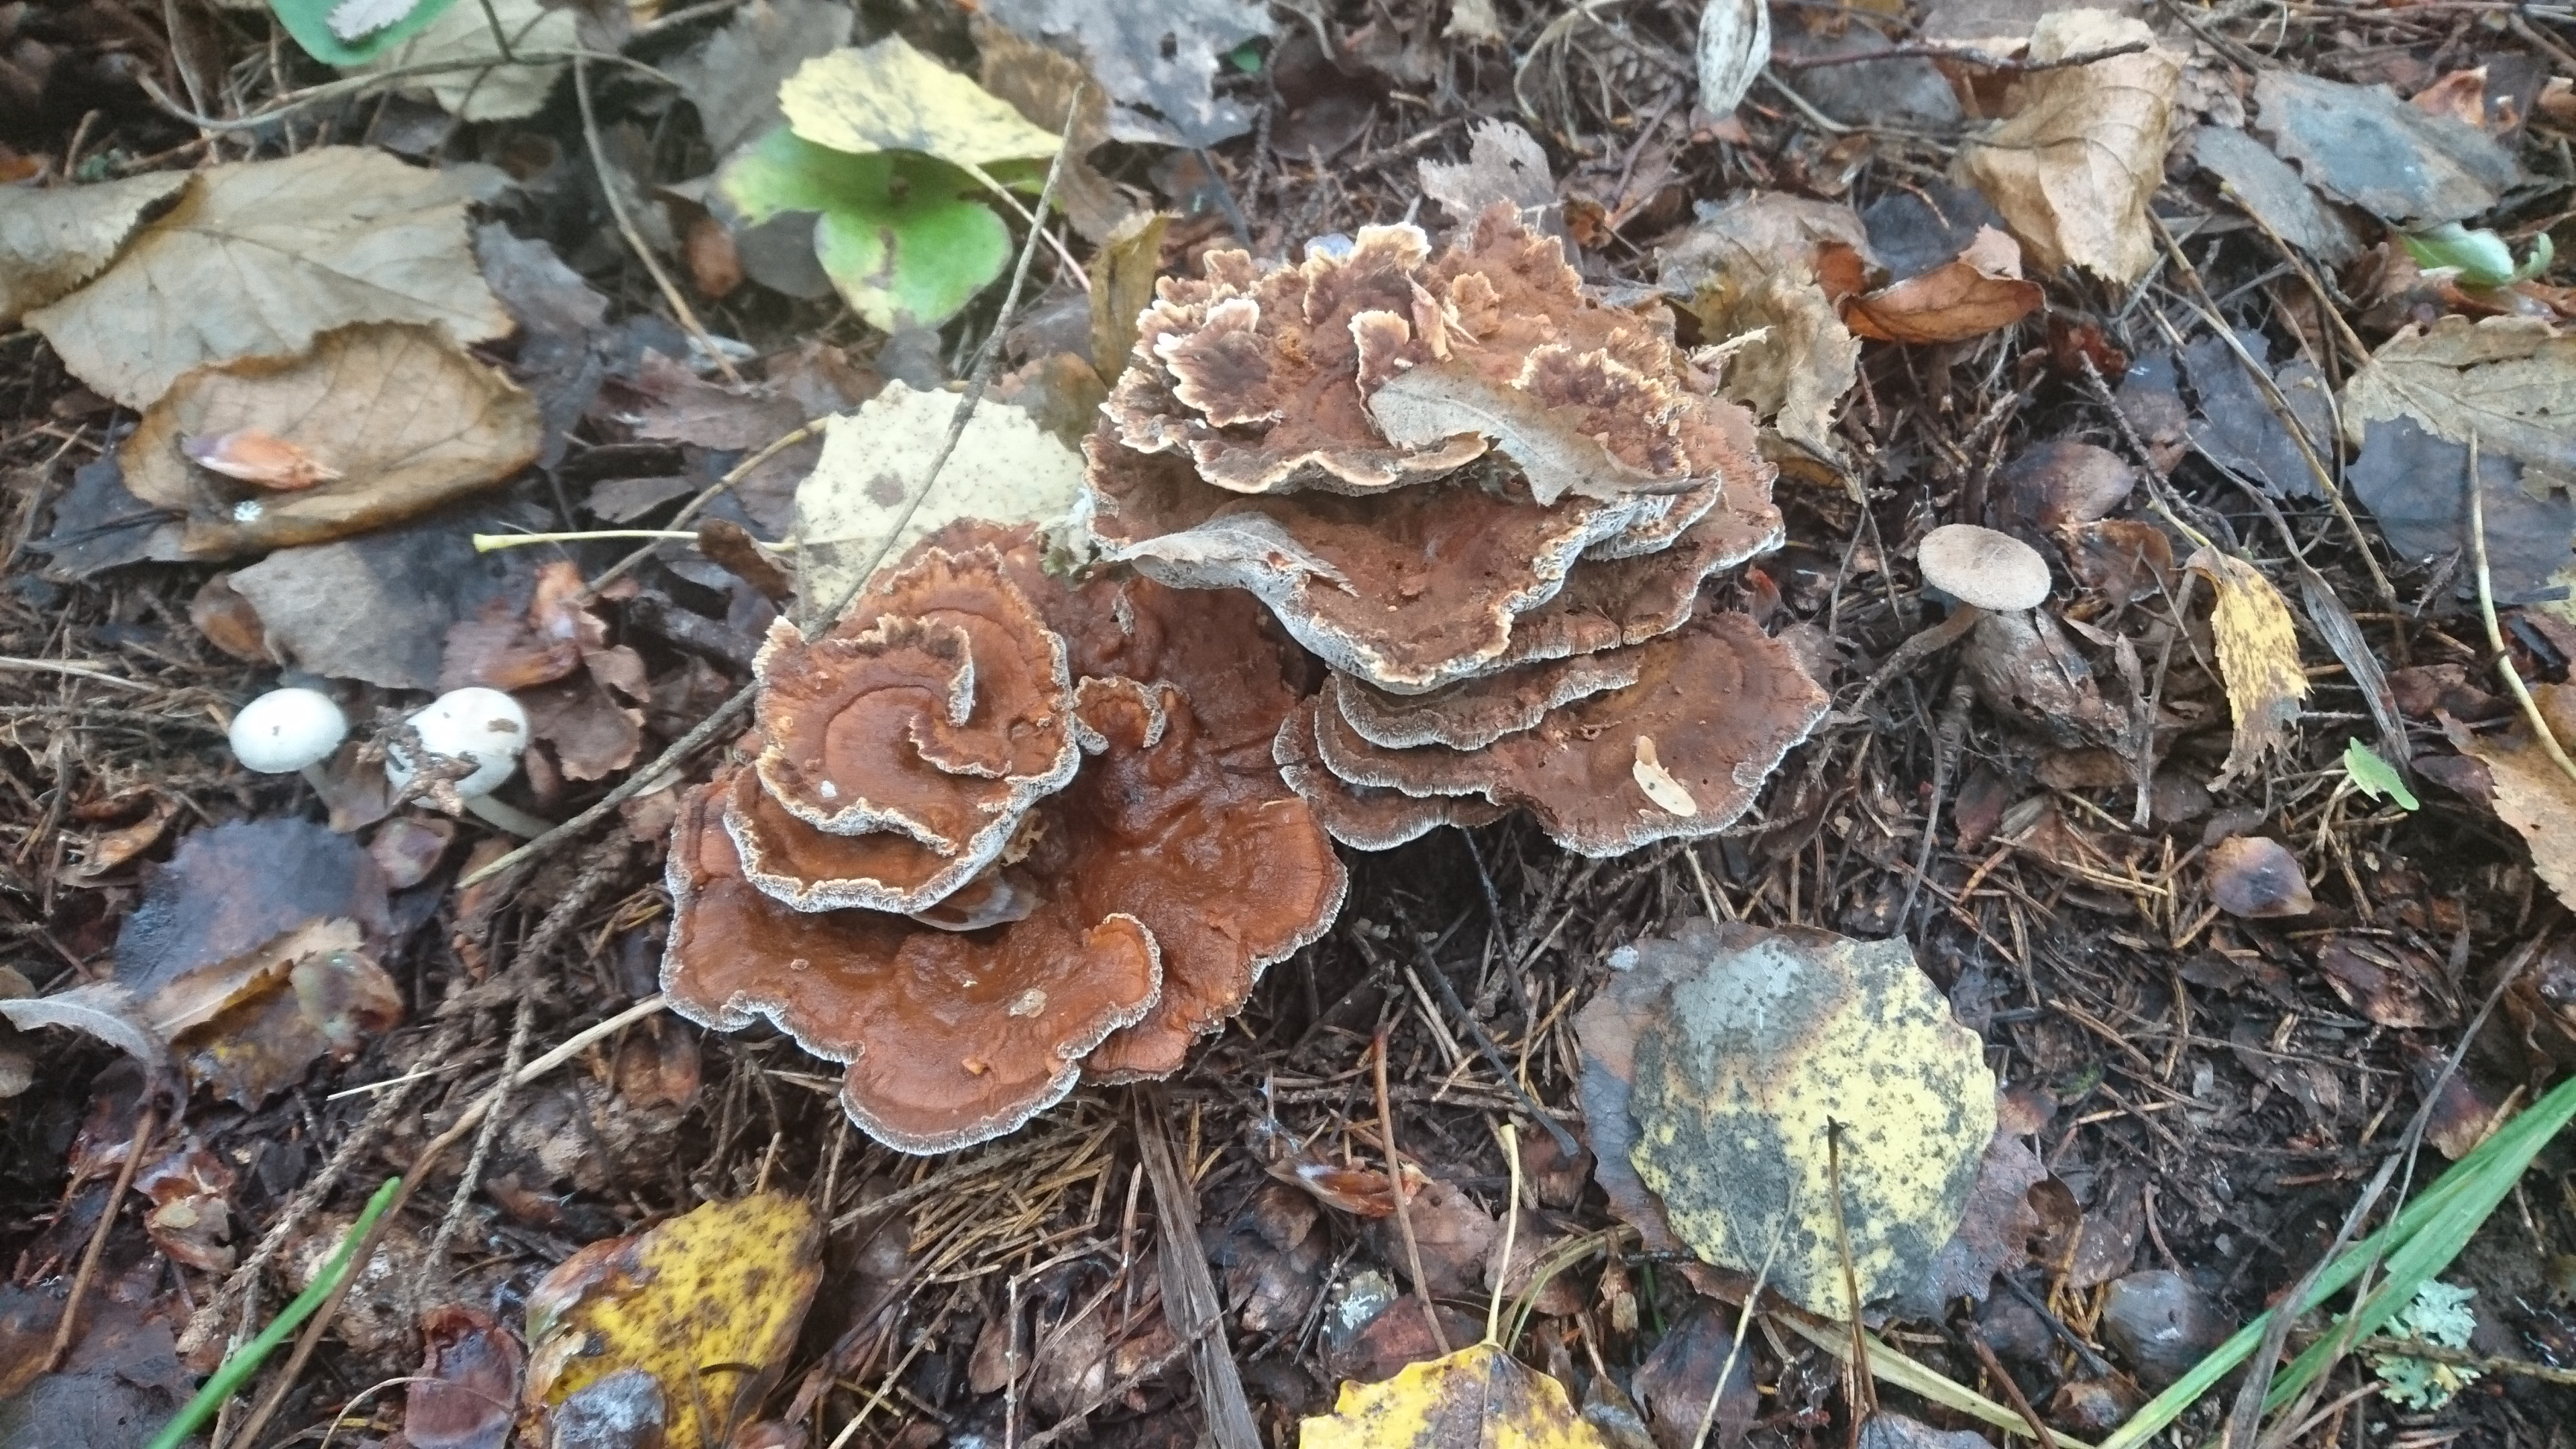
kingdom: Fungi
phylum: Basidiomycota
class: Agaricomycetes
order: Hymenochaetales
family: Hymenochaetaceae
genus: Onnia
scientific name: Onnia tomentosa
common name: Velvet rosette
